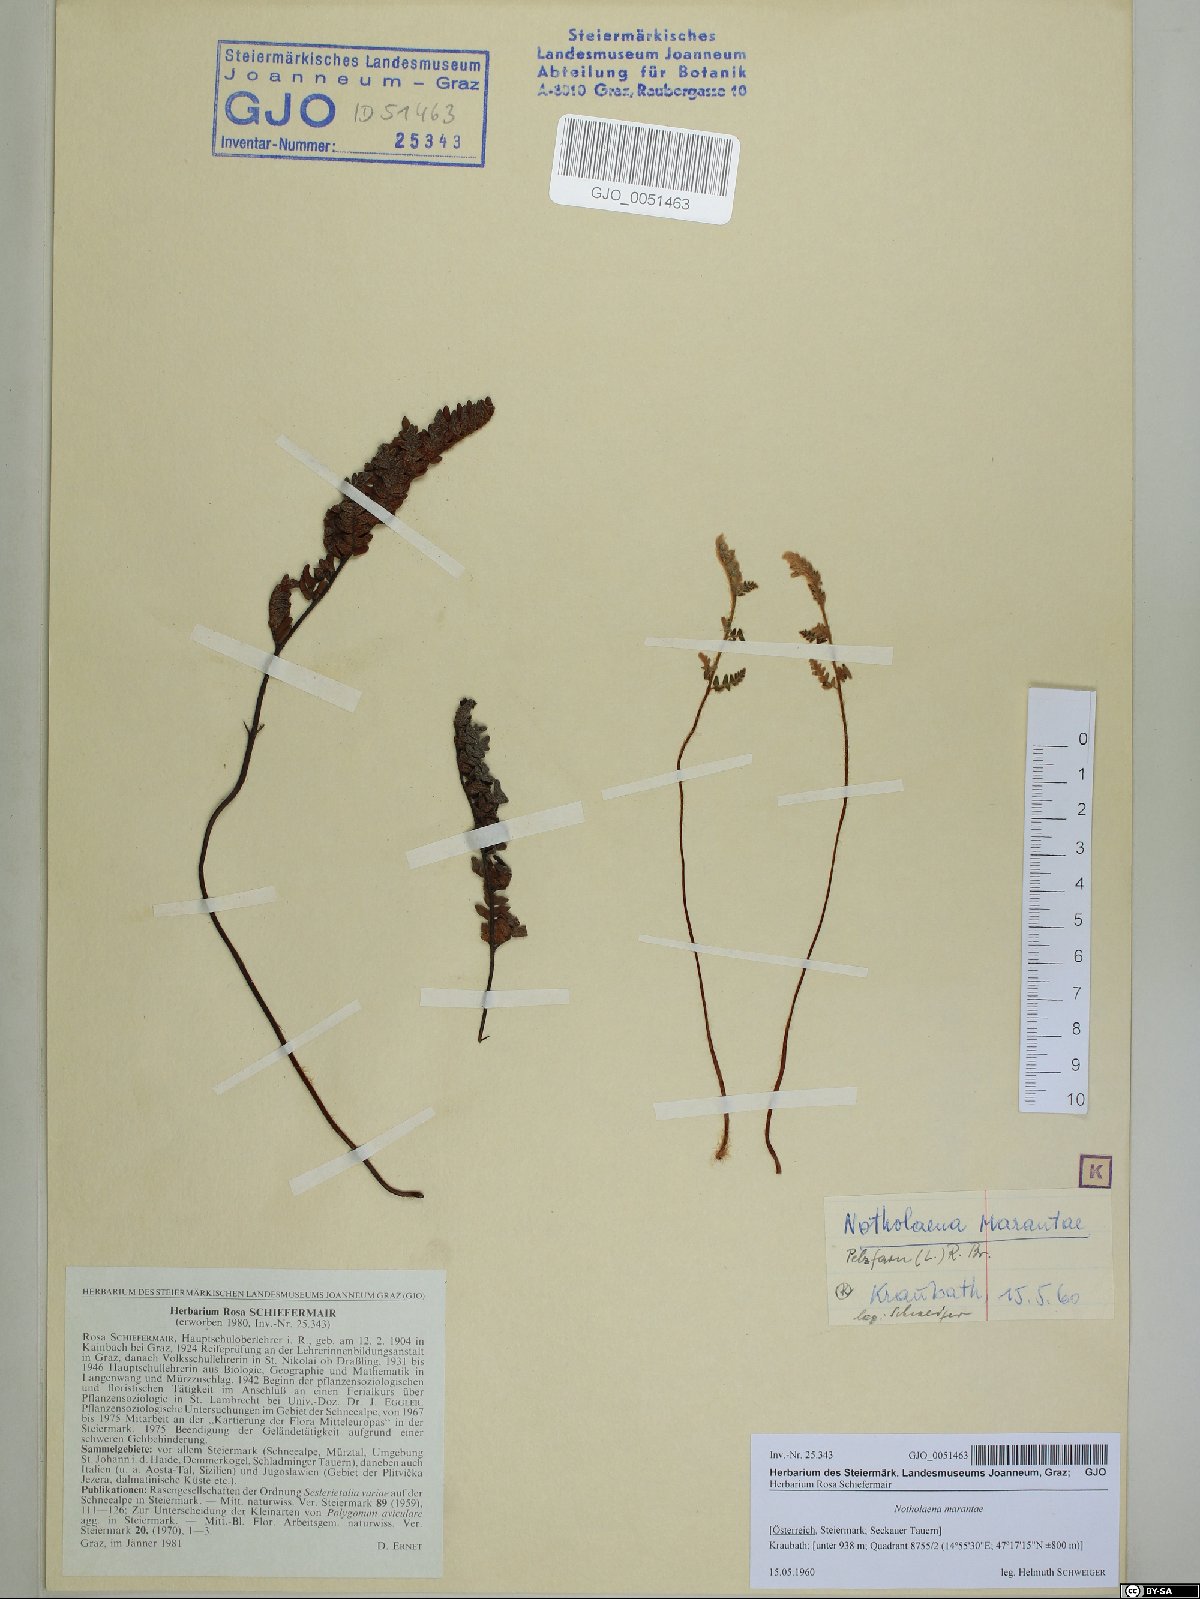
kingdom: Plantae
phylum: Tracheophyta
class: Polypodiopsida
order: Polypodiales
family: Pteridaceae
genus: Paragymnopteris
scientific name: Paragymnopteris marantae
